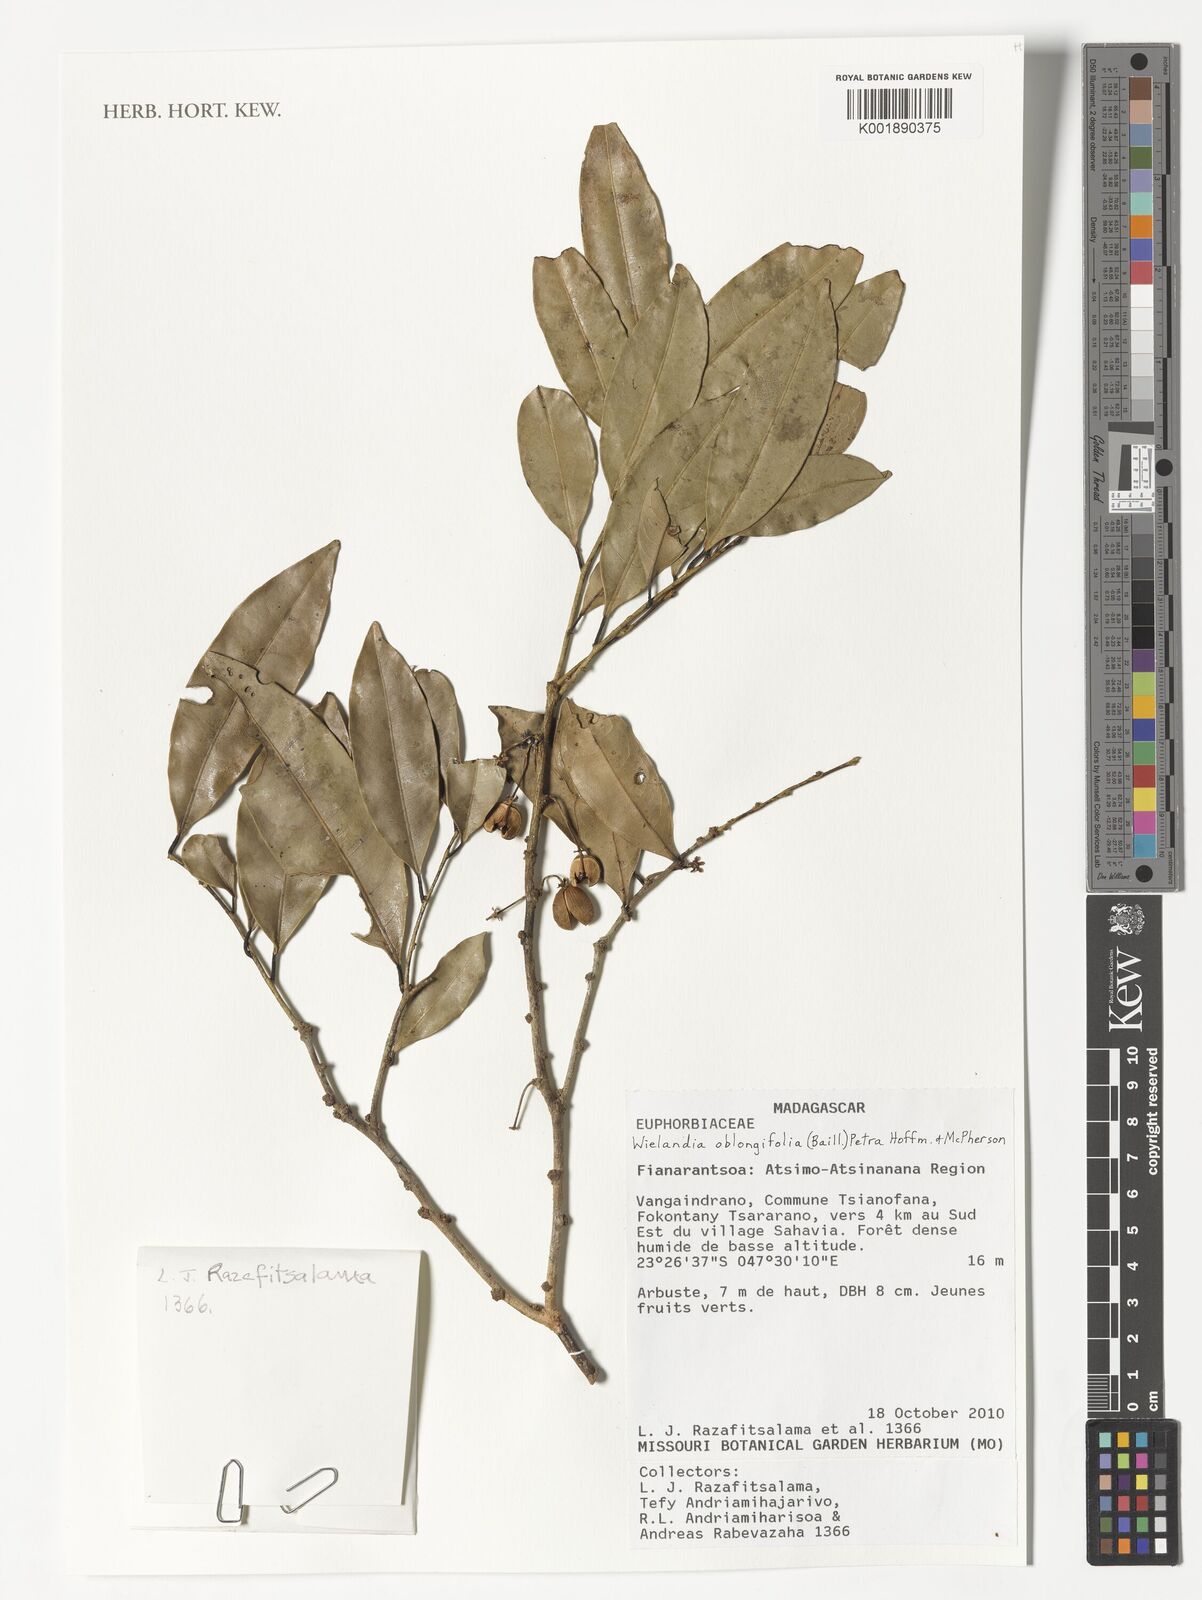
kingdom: Plantae
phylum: Tracheophyta
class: Magnoliopsida
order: Malpighiales
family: Phyllanthaceae
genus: Wielandia
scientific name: Wielandia oblongifolia
